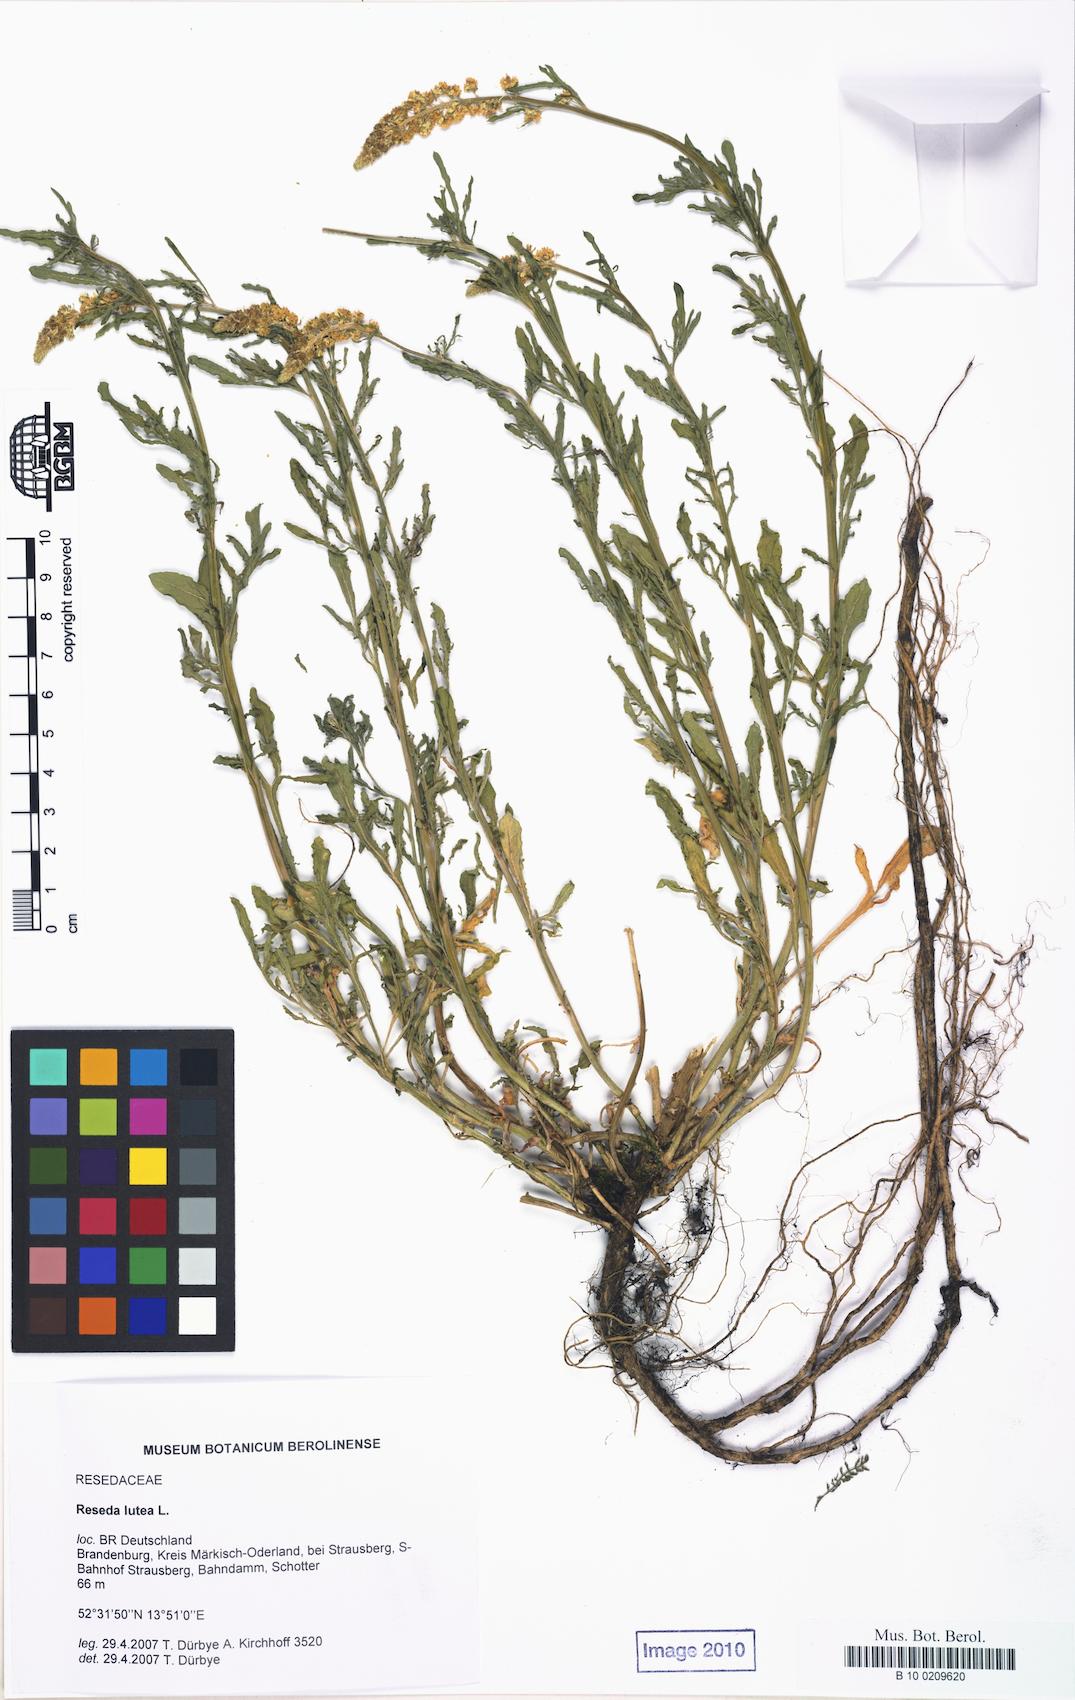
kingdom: Plantae
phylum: Tracheophyta
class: Magnoliopsida
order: Brassicales
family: Resedaceae
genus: Reseda
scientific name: Reseda lutea
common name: Wild mignonette
